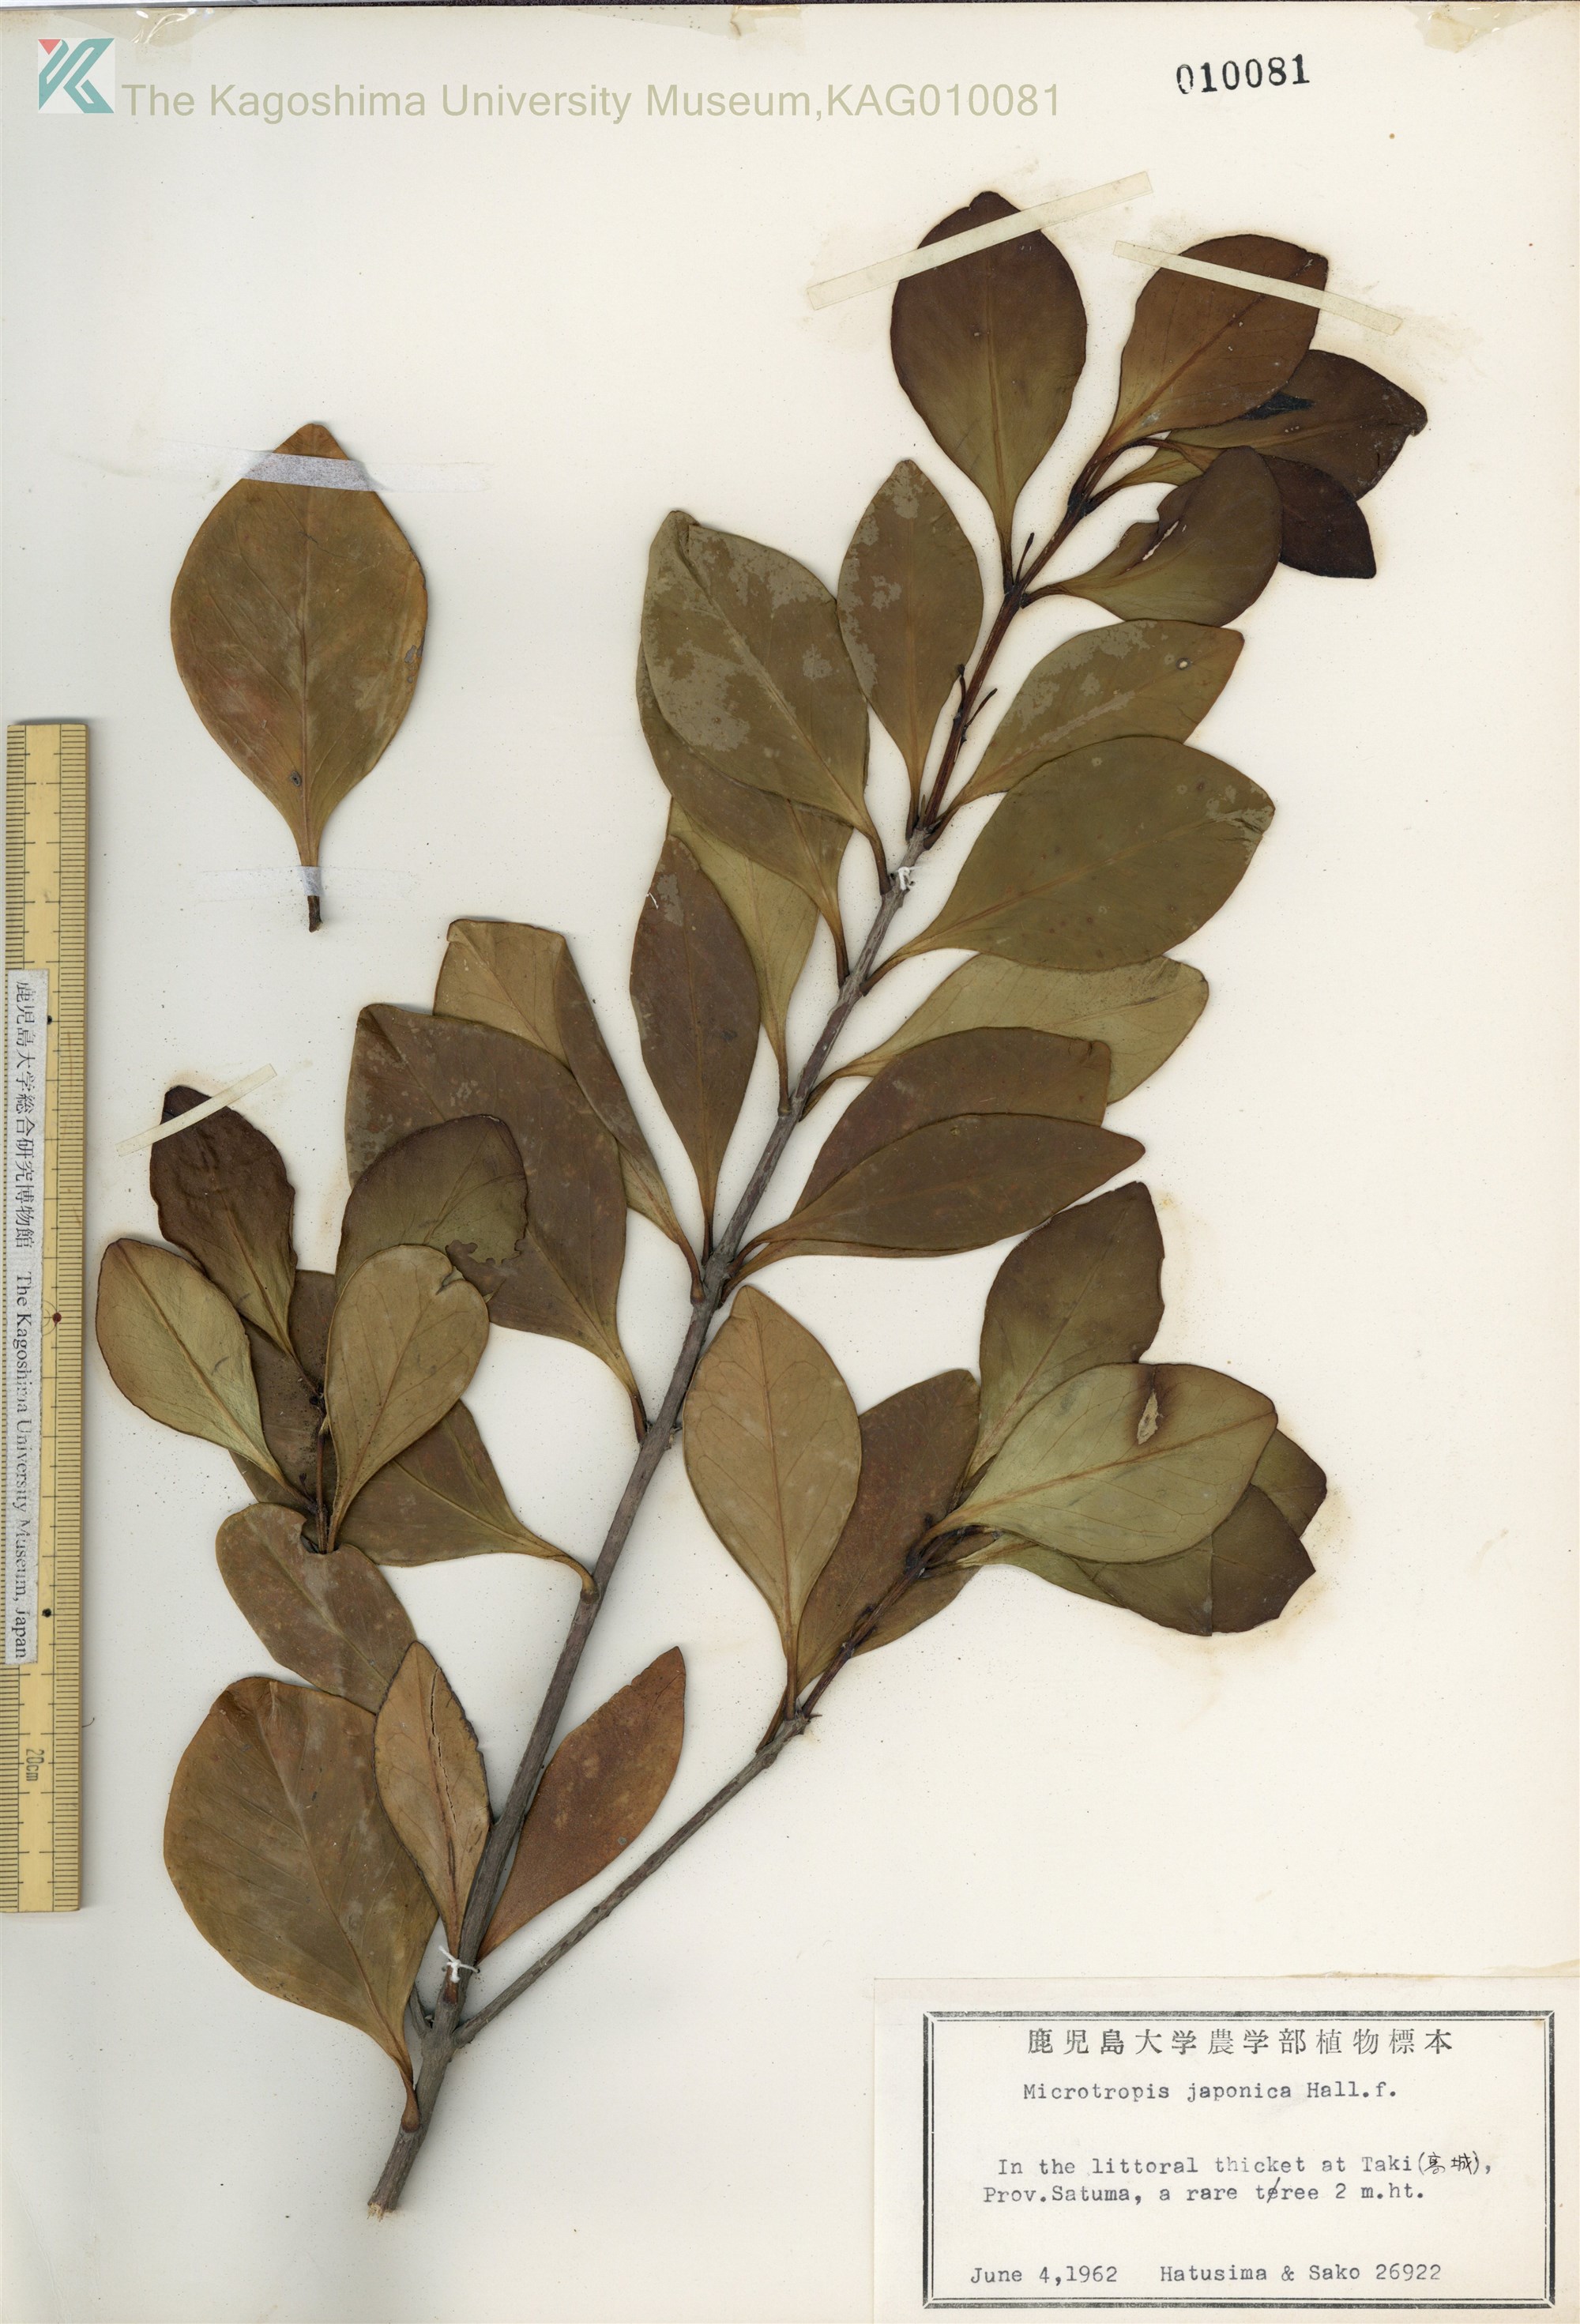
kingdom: Plantae
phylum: Tracheophyta
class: Magnoliopsida
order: Celastrales
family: Celastraceae
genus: Microtropis
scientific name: Microtropis japonica
